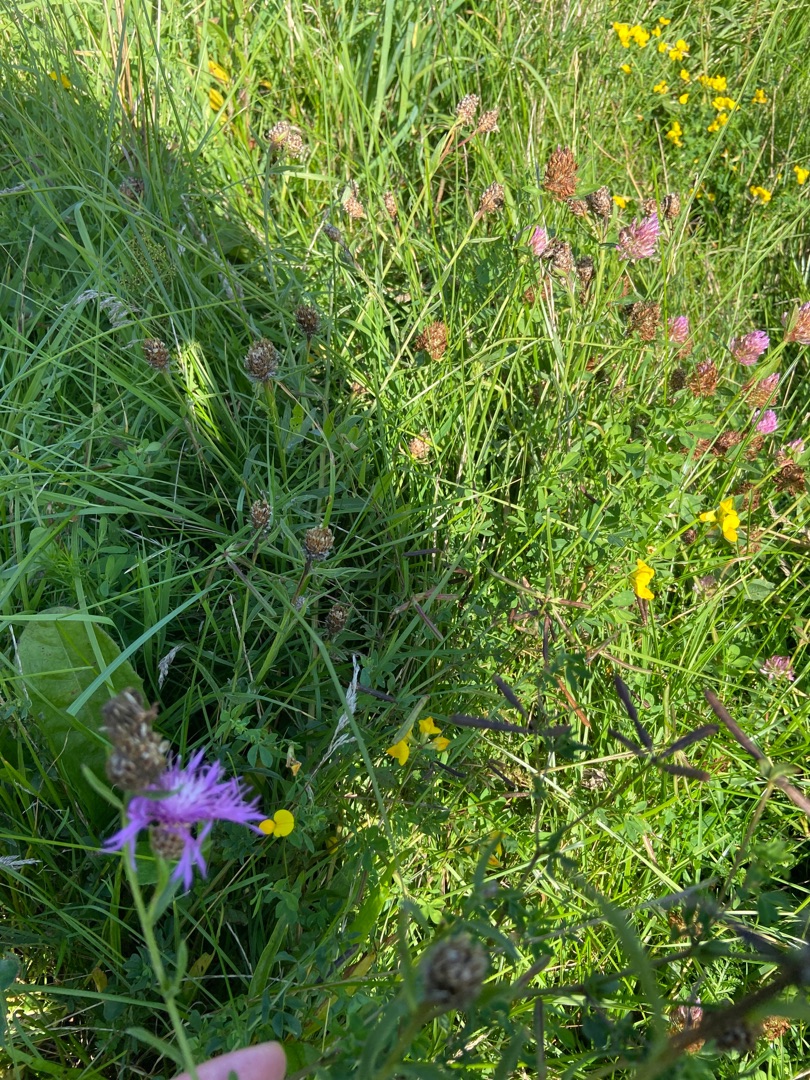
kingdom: Plantae
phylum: Tracheophyta
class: Magnoliopsida
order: Asterales
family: Asteraceae
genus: Centaurea
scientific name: Centaurea jacea
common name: Almindelig knopurt
